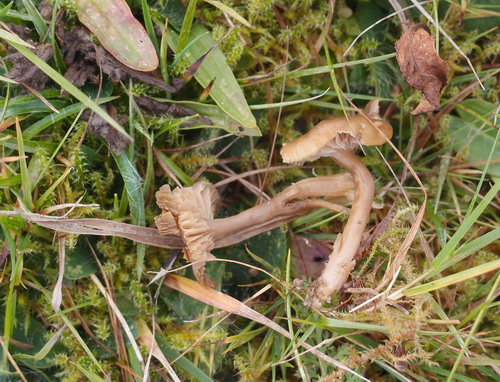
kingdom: Fungi
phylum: Basidiomycota
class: Agaricomycetes
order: Agaricales
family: Clavariaceae
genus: Camarophyllopsis
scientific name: Camarophyllopsis schulzeri
